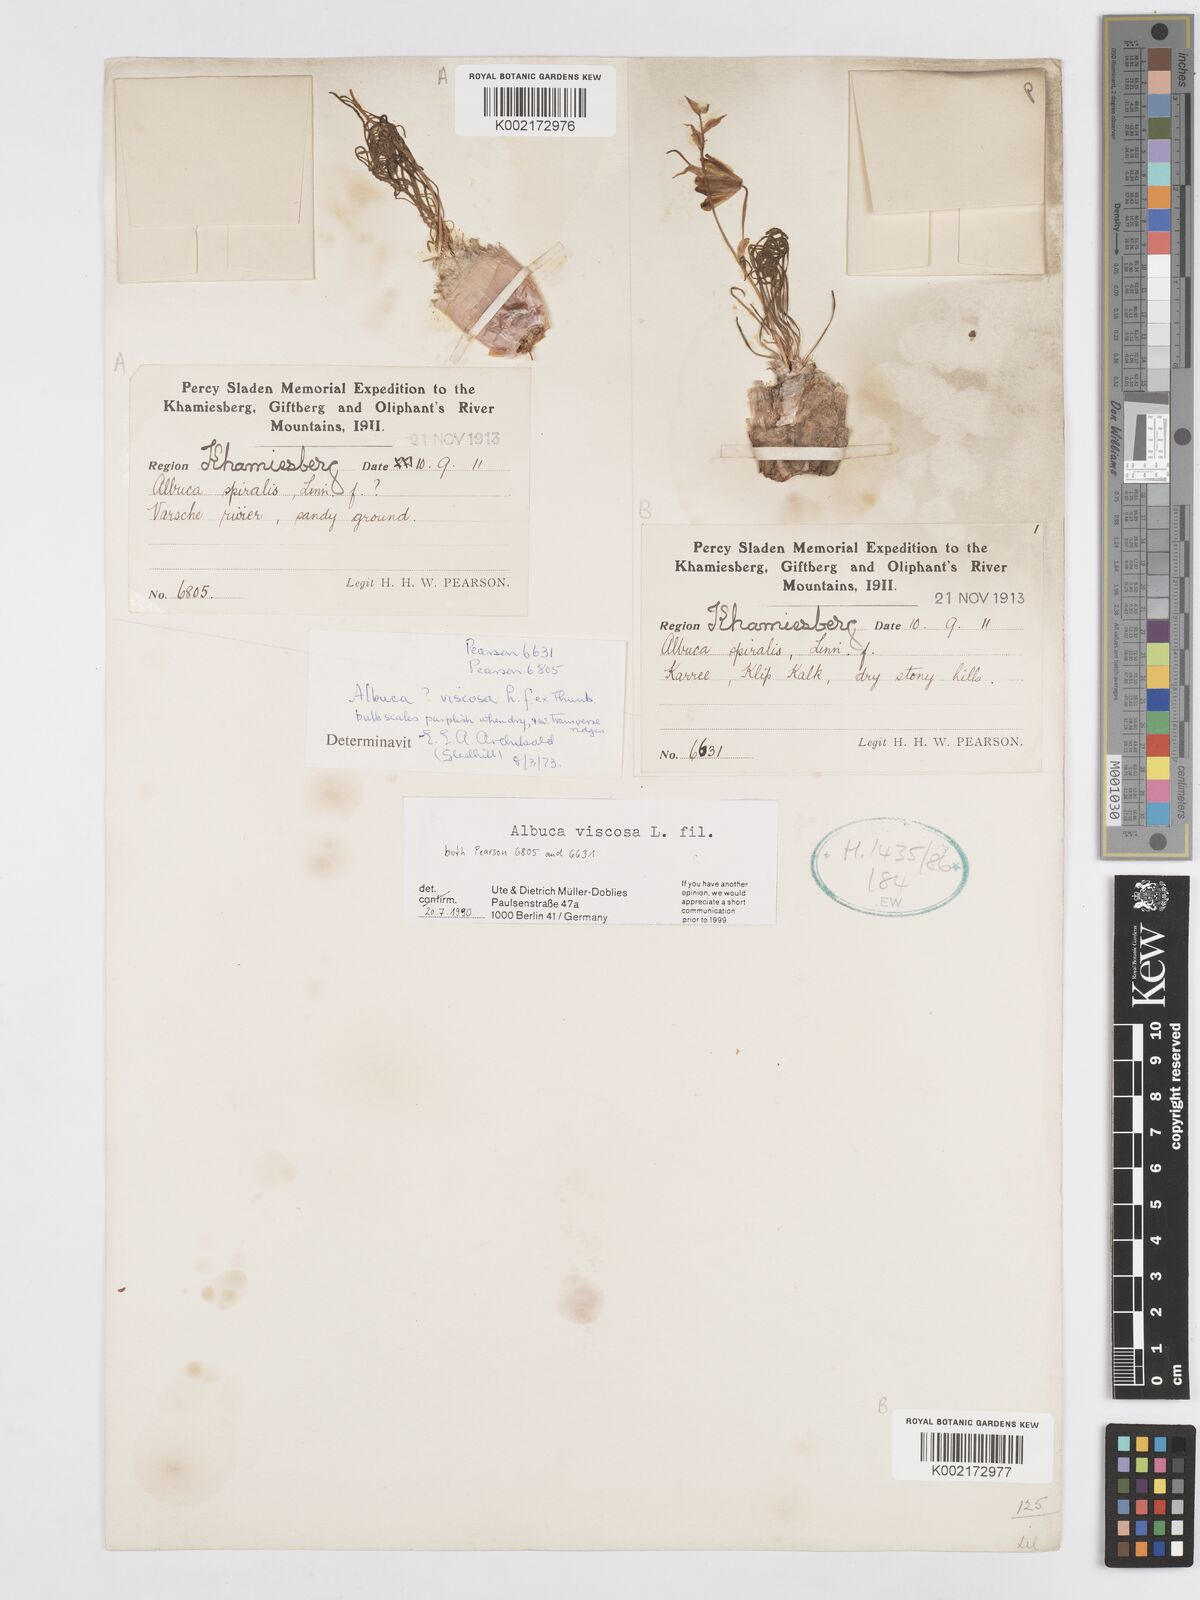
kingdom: Plantae
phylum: Tracheophyta
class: Liliopsida
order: Asparagales
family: Asparagaceae
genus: Albuca
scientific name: Albuca viscosa
